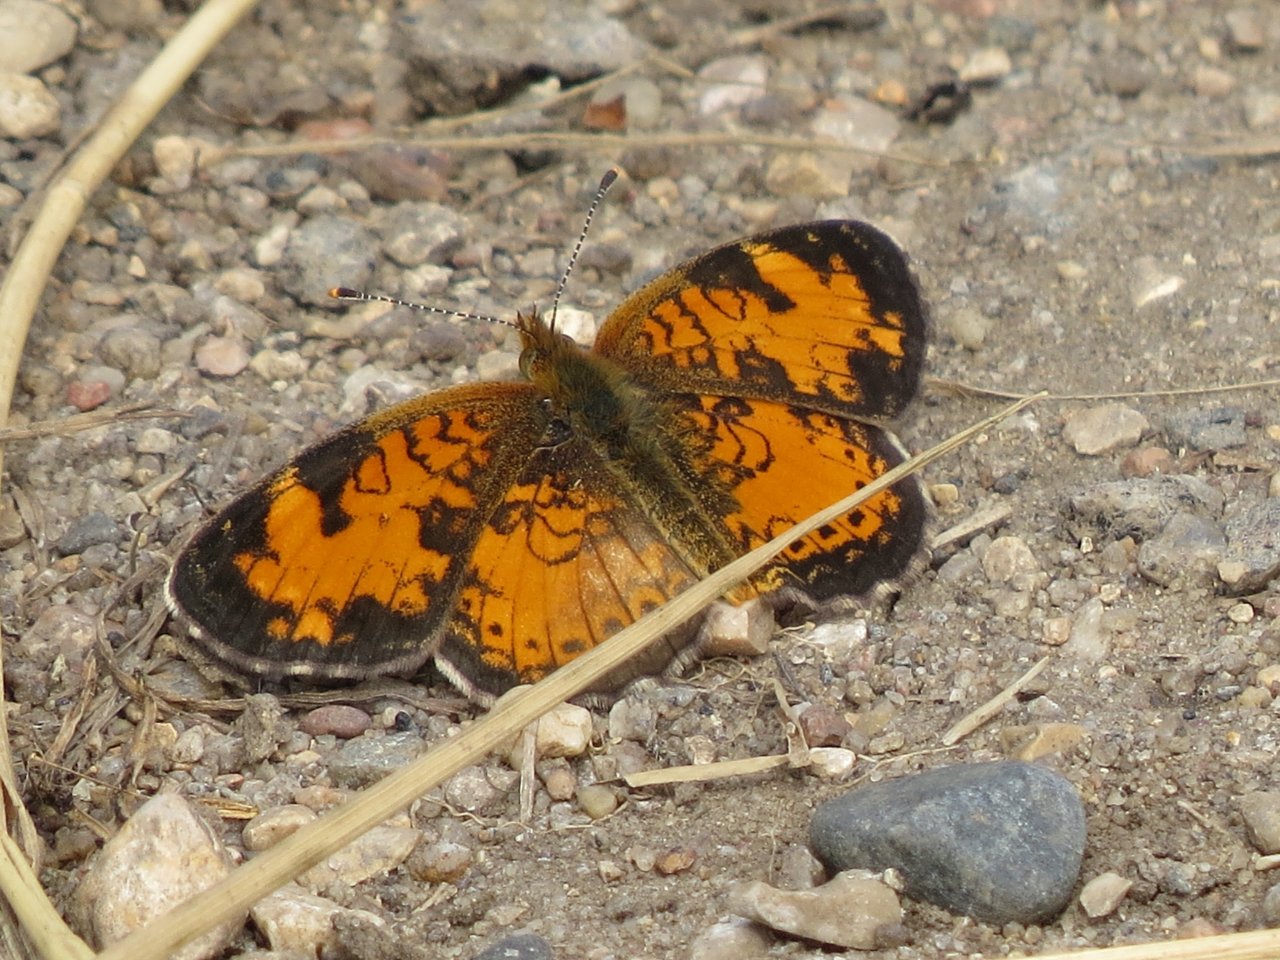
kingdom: Animalia
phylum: Arthropoda
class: Insecta
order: Lepidoptera
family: Nymphalidae
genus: Phyciodes
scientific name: Phyciodes tharos
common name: Northern Crescent
